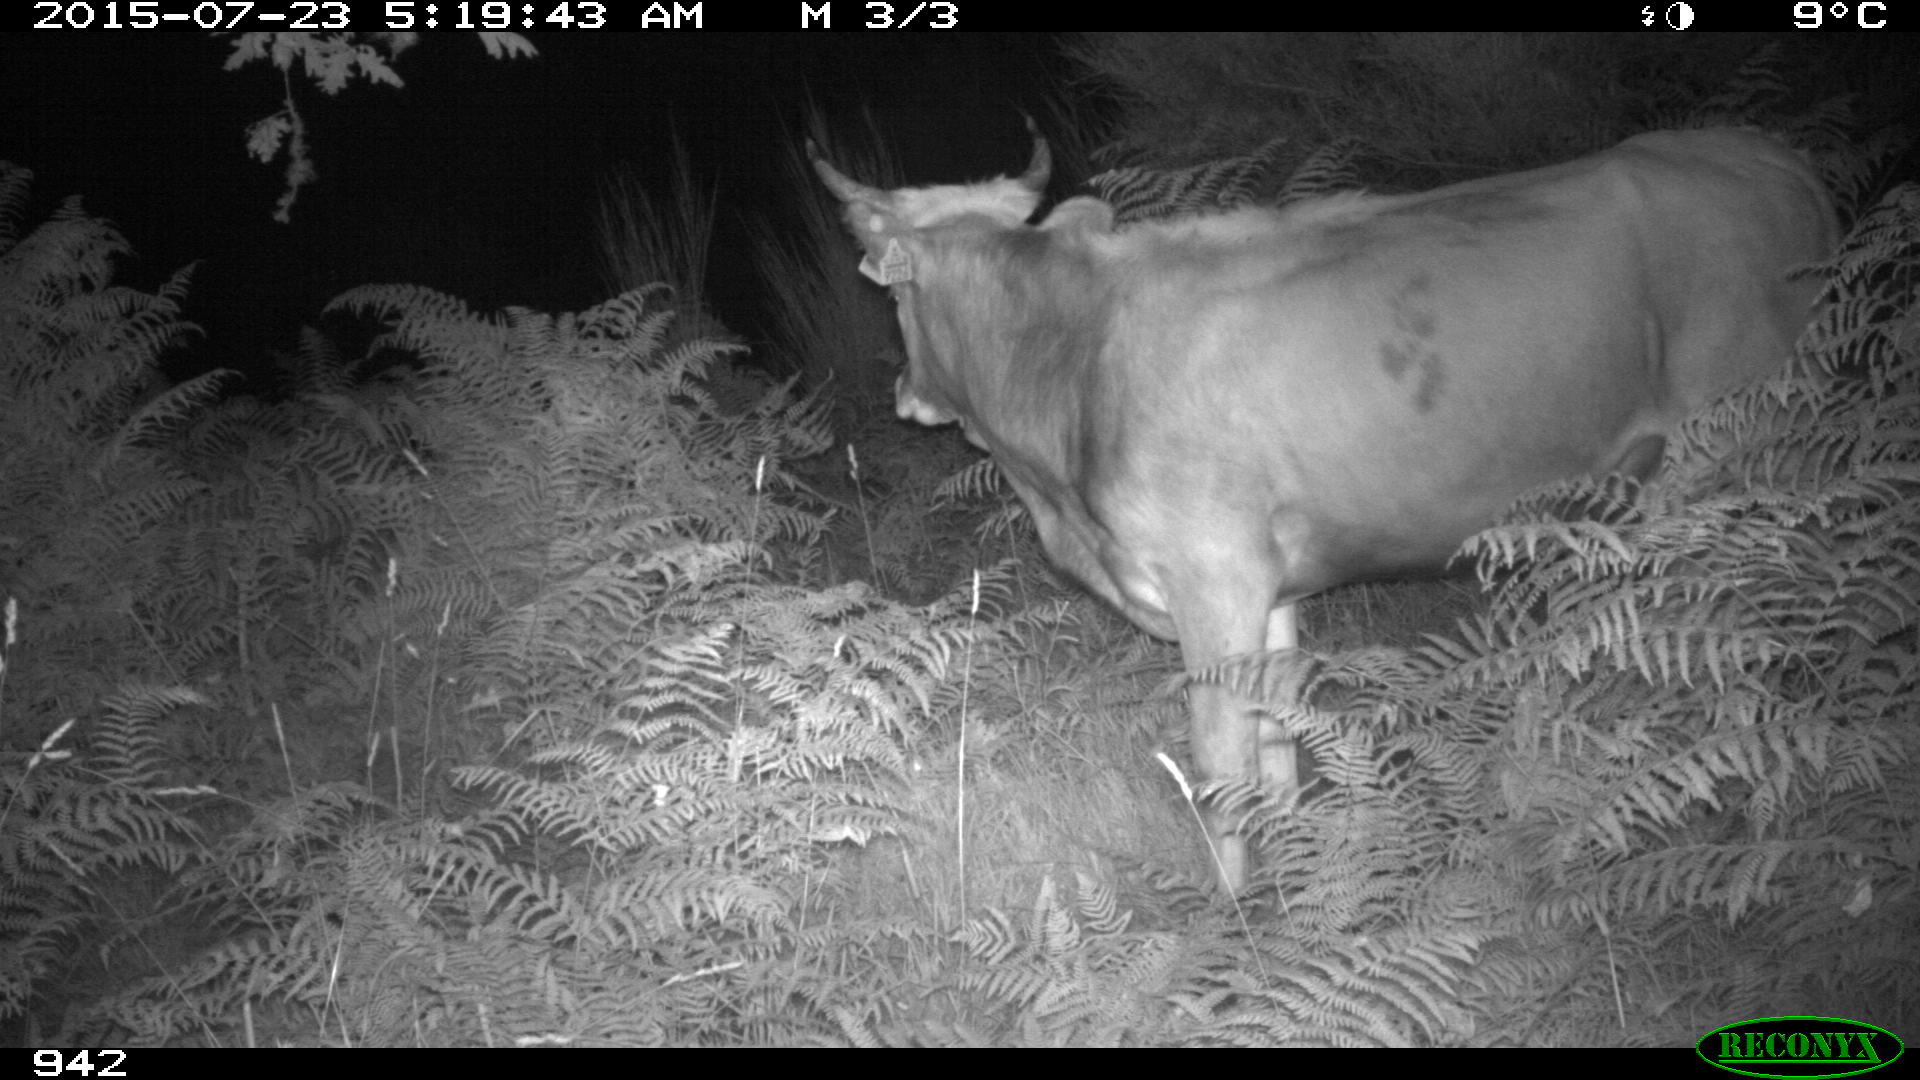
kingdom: Animalia
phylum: Chordata
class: Mammalia
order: Artiodactyla
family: Bovidae
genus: Bos
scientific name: Bos taurus
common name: Domesticated cattle
